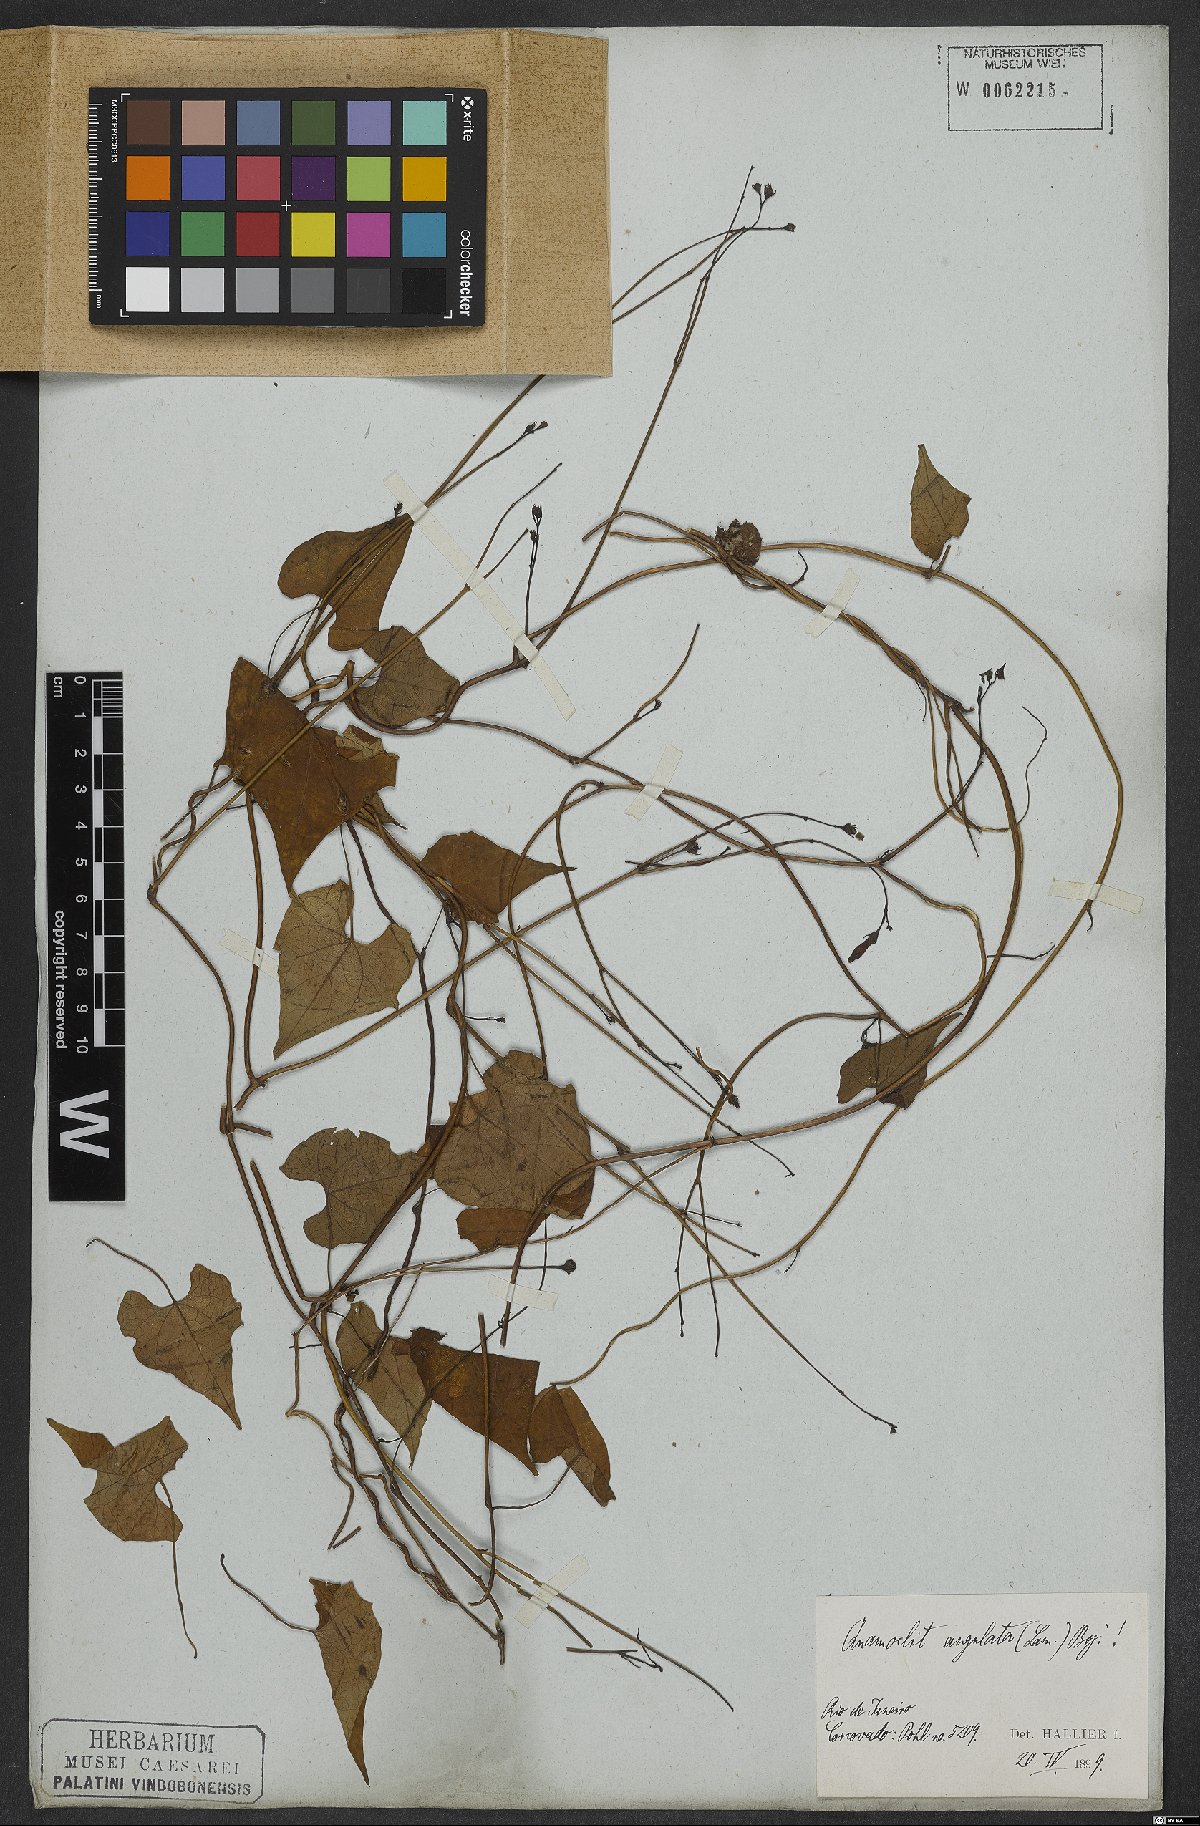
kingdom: Plantae
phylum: Tracheophyta
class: Magnoliopsida
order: Solanales
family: Convolvulaceae
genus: Ipomoea
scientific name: Ipomoea hederifolia
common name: Ivy-leaf morning-glory
